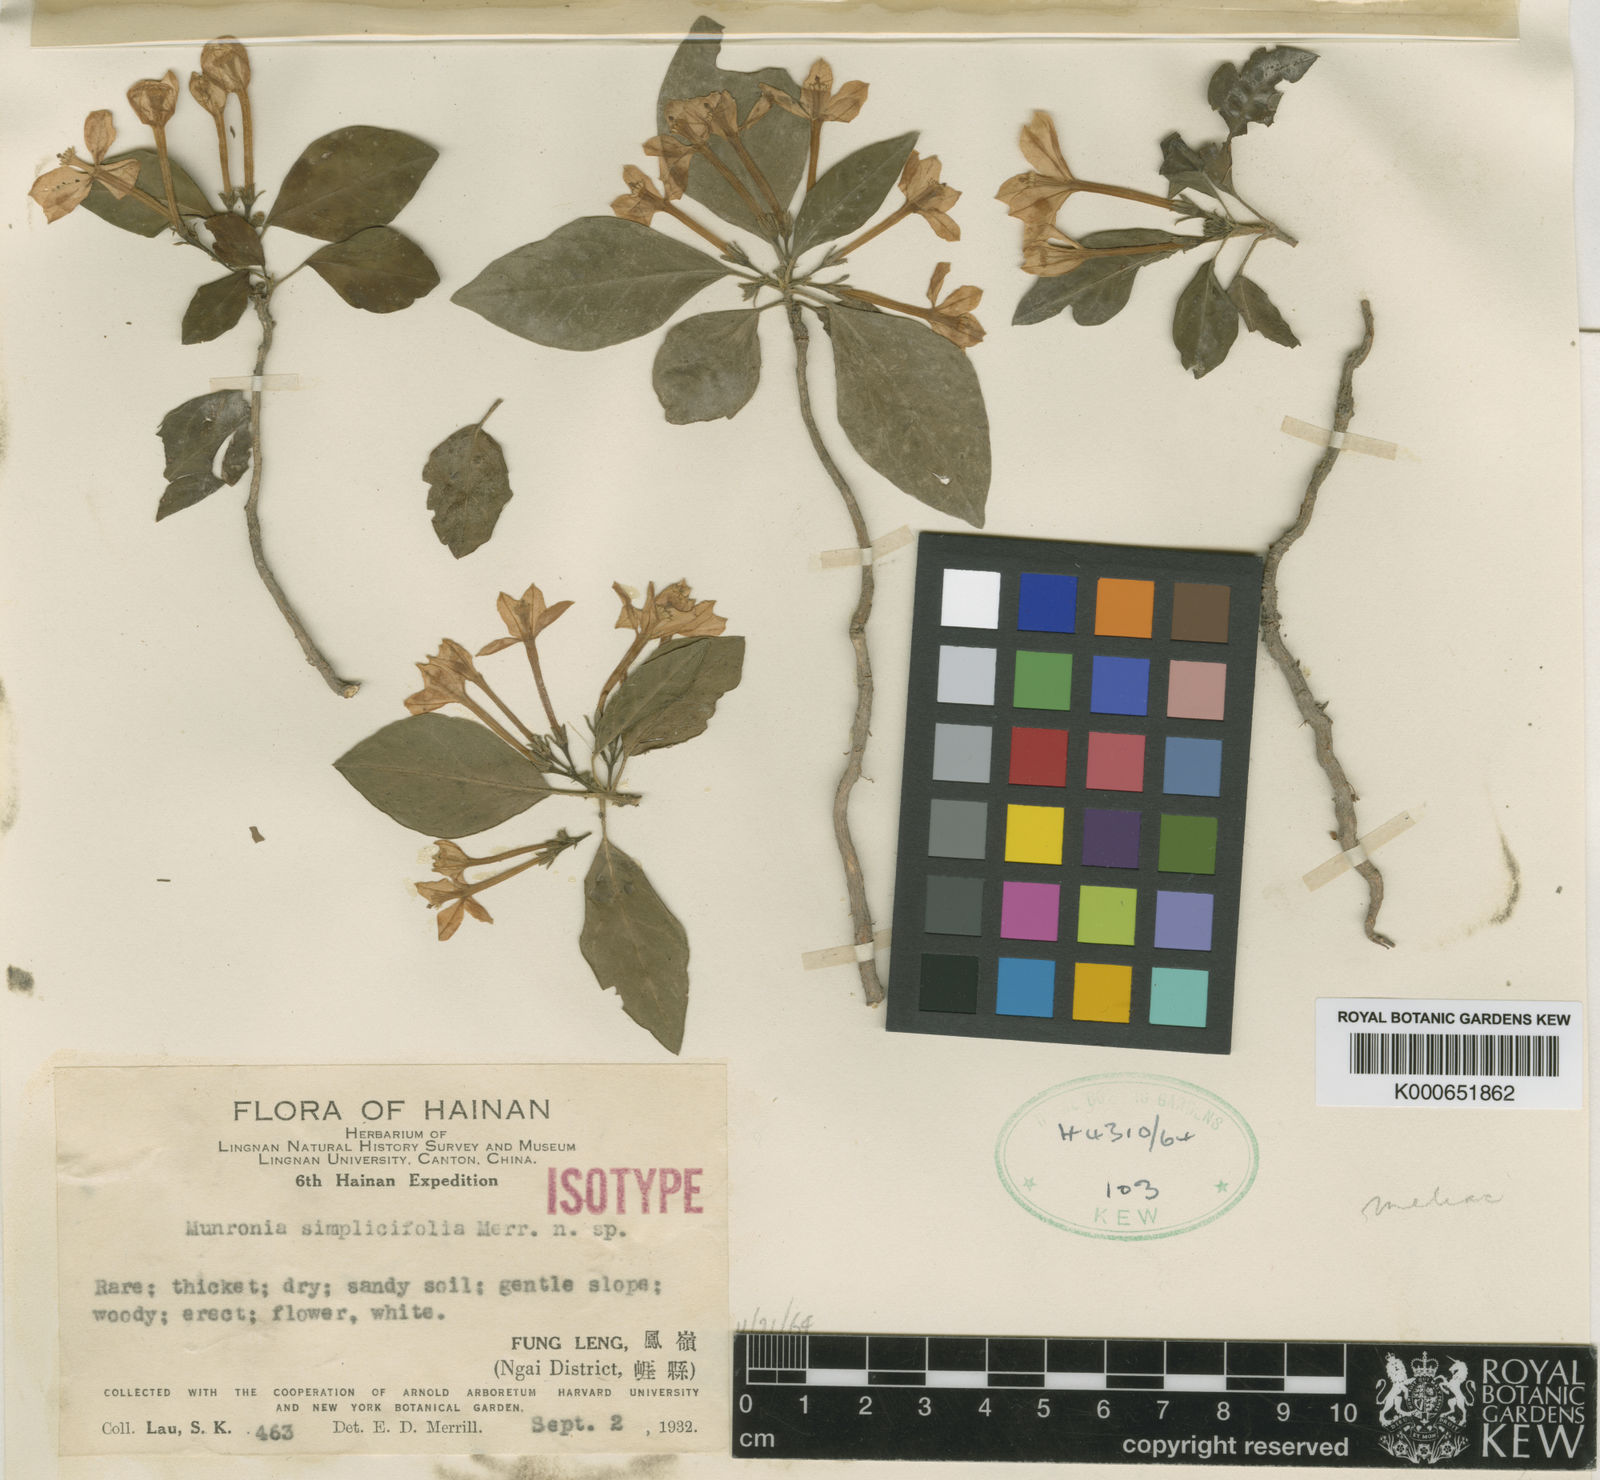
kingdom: Plantae
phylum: Tracheophyta
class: Magnoliopsida
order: Sapindales
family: Meliaceae
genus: Munronia
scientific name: Munronia unifoliolata
